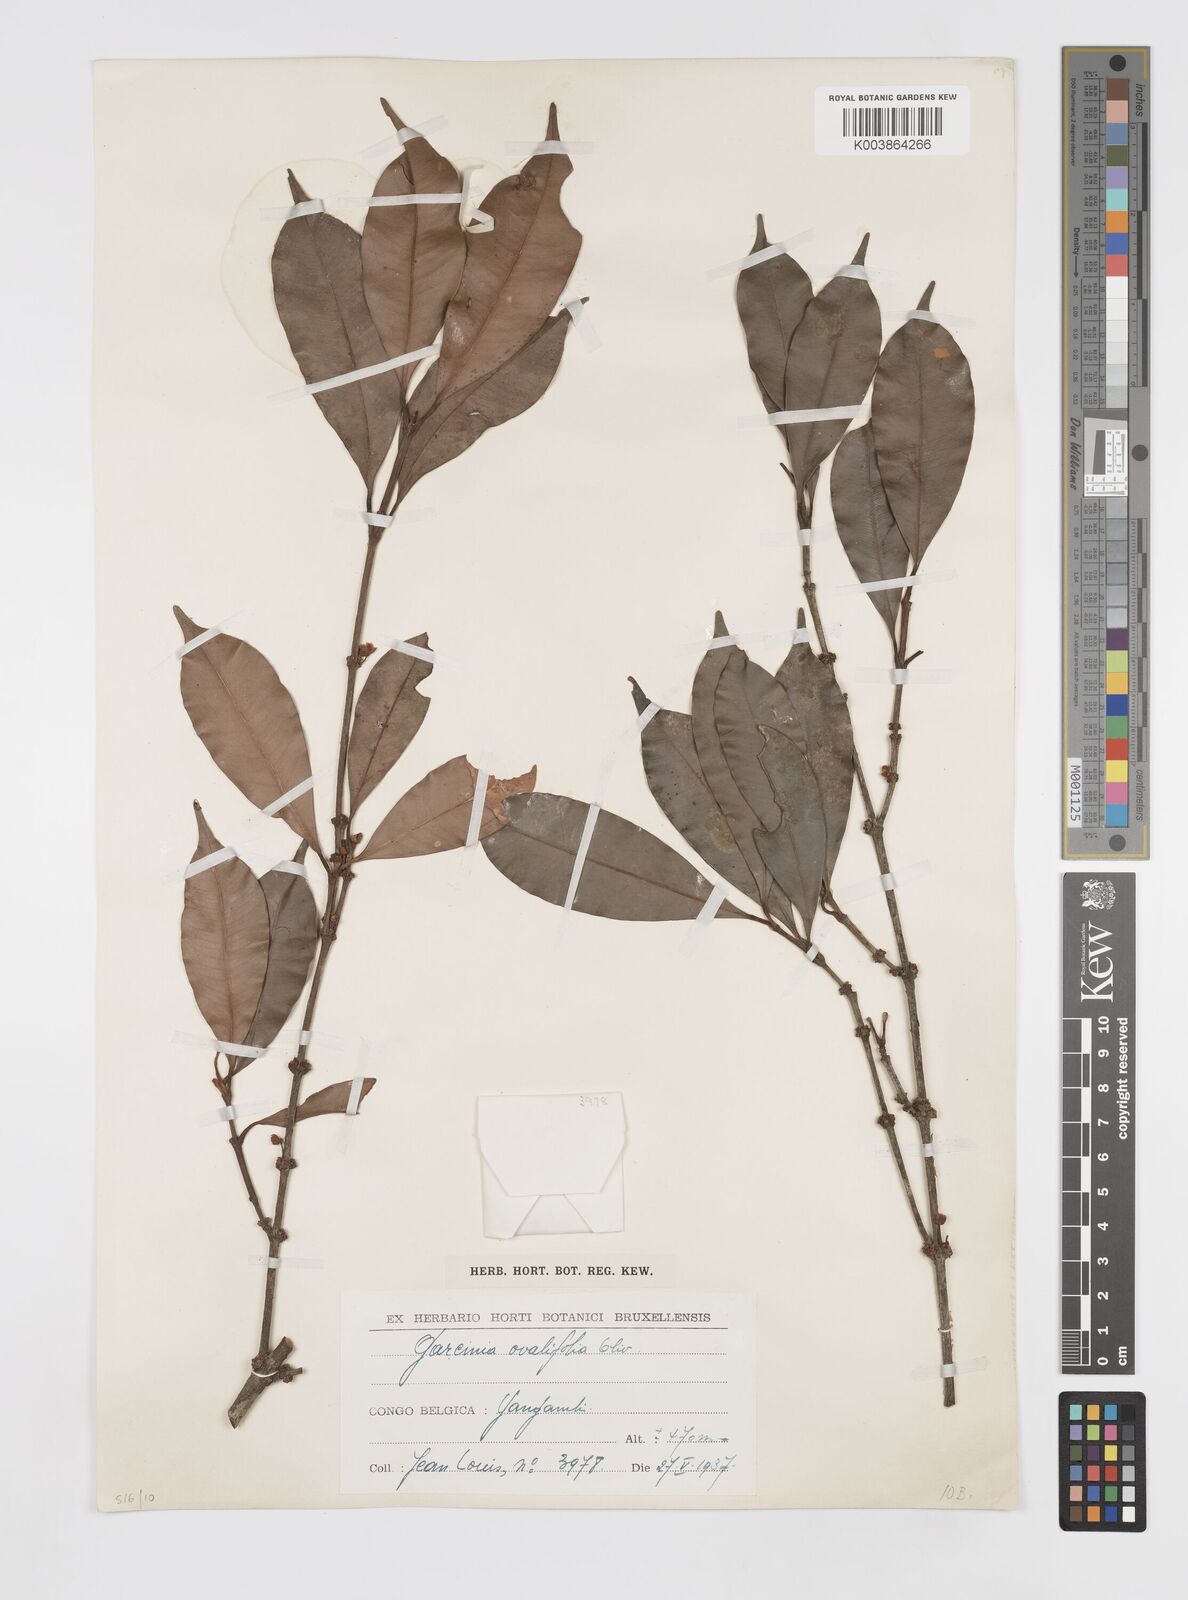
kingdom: Plantae
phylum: Tracheophyta
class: Magnoliopsida
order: Malpighiales
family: Clusiaceae
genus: Garcinia
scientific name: Garcinia ovalifolia
